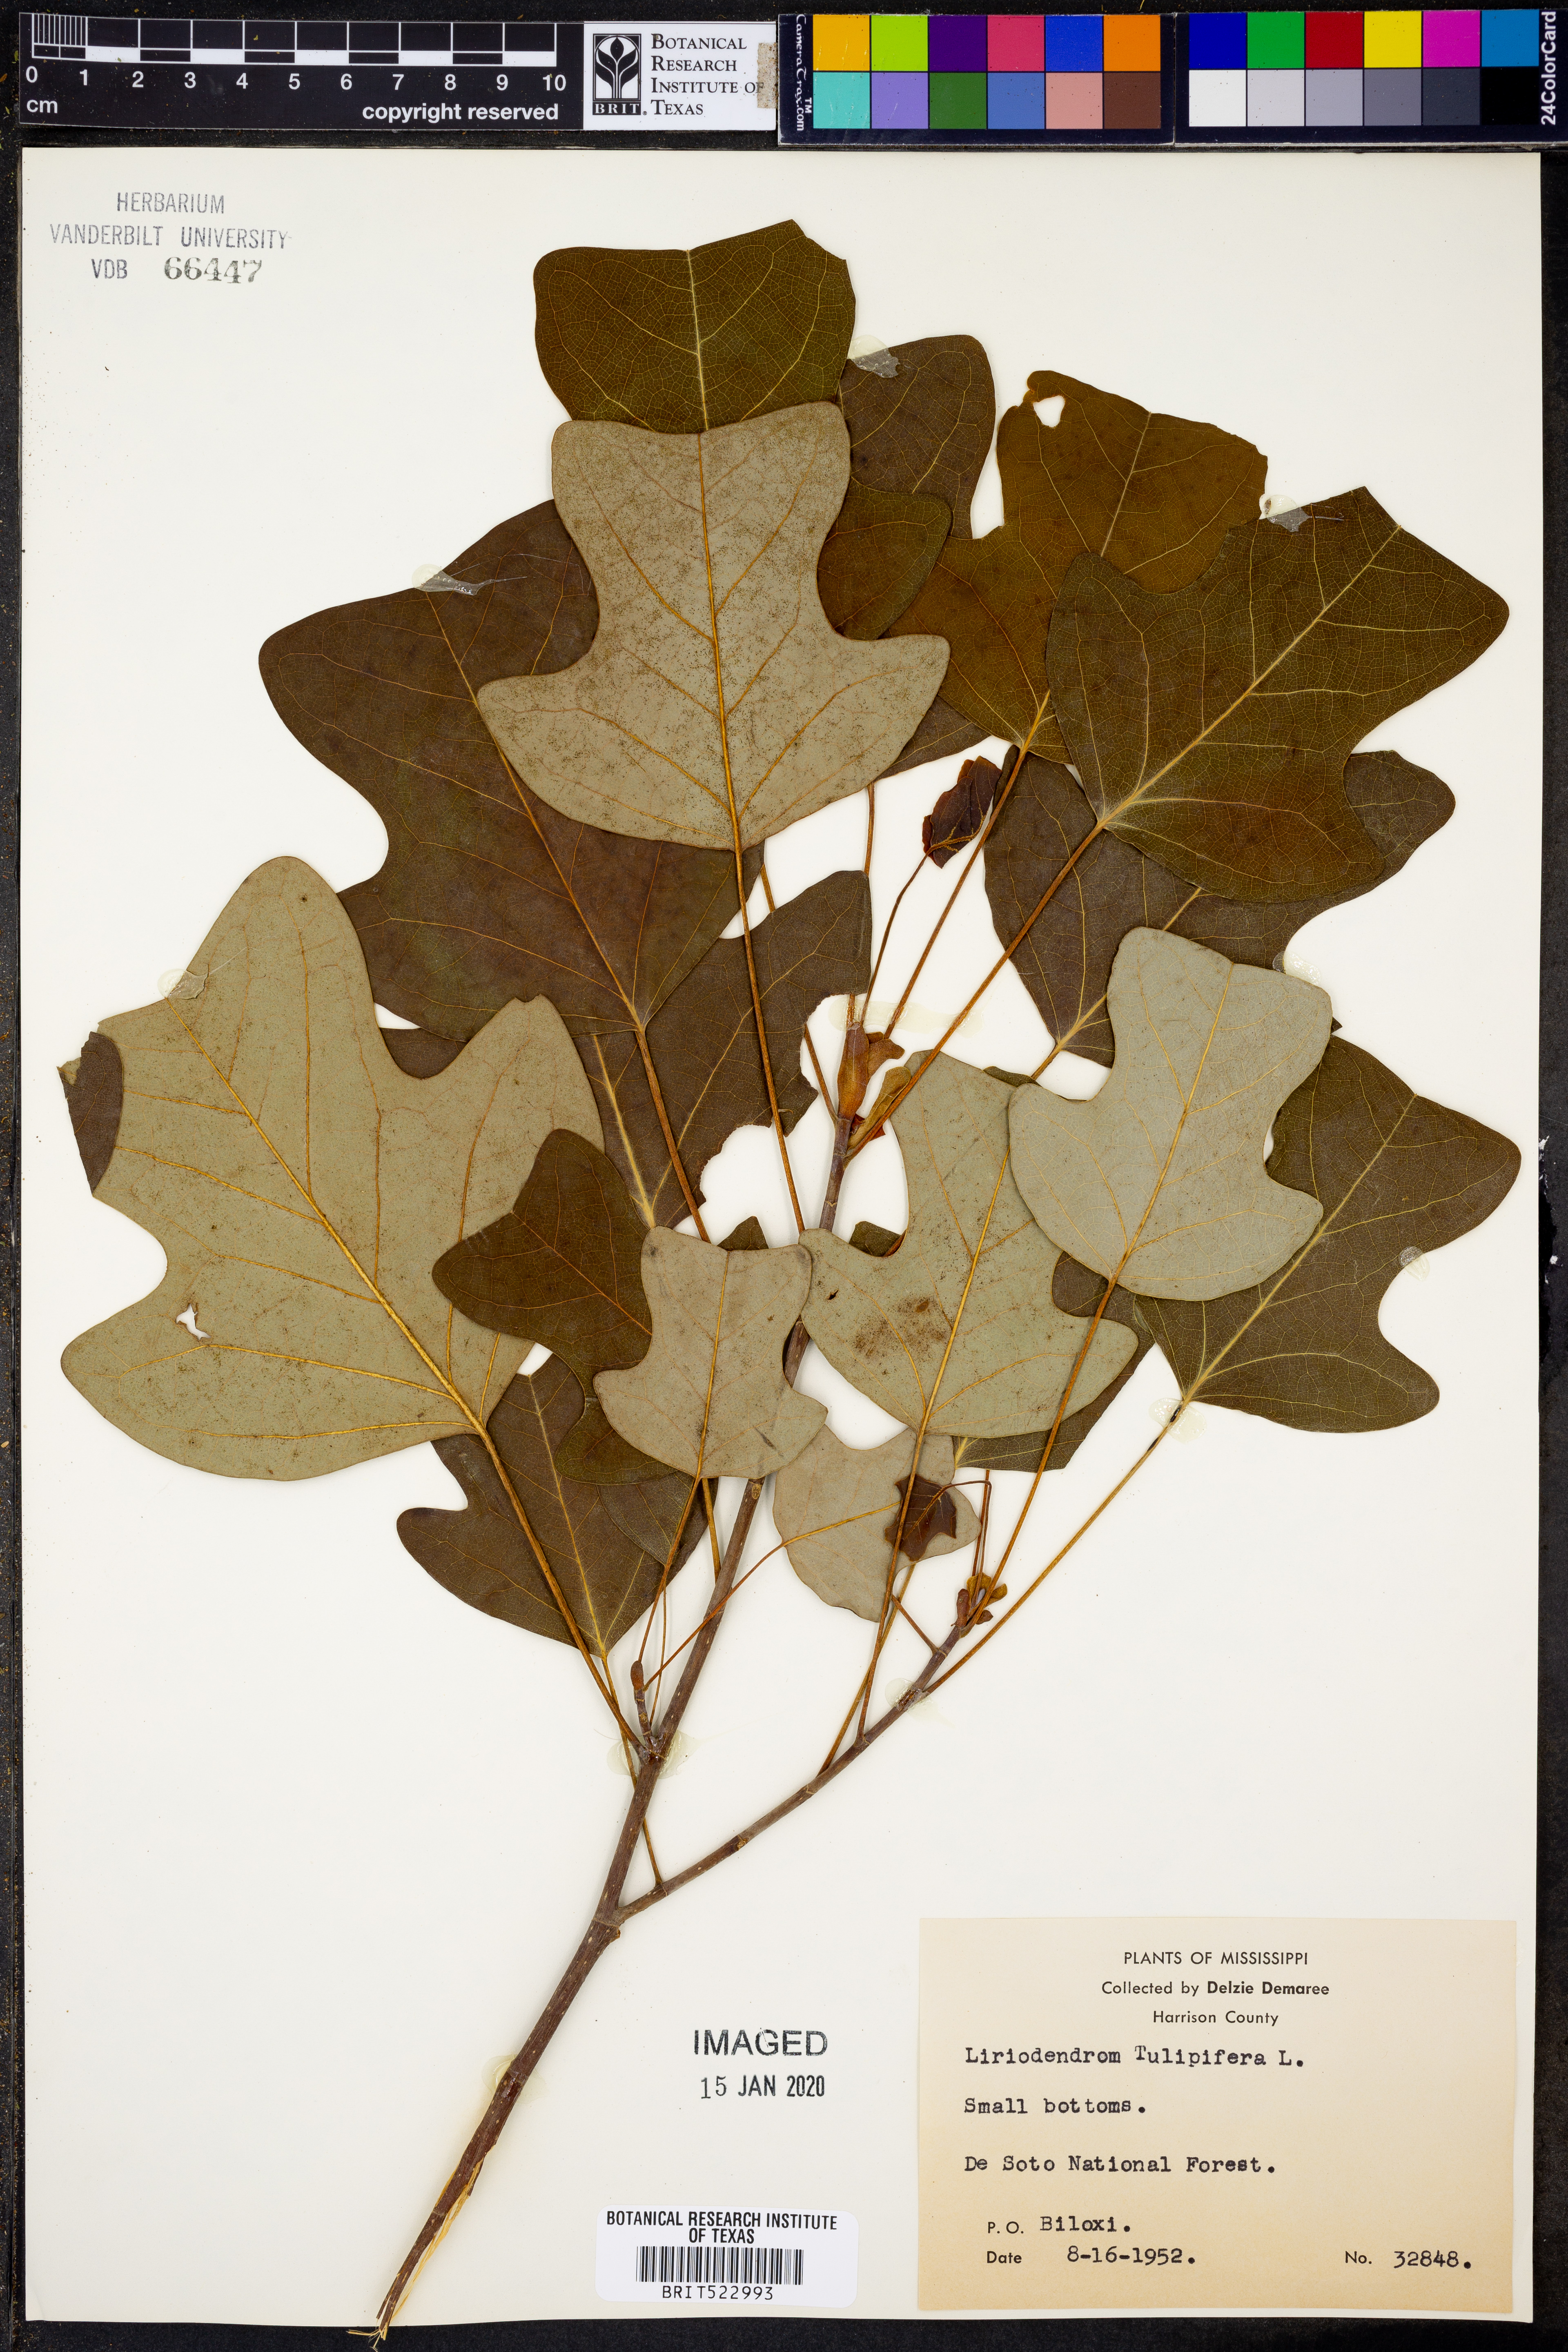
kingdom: Plantae
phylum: Tracheophyta
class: Magnoliopsida
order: Magnoliales
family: Magnoliaceae
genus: Liriodendron
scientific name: Liriodendron tulipifera
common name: Tulip tree
